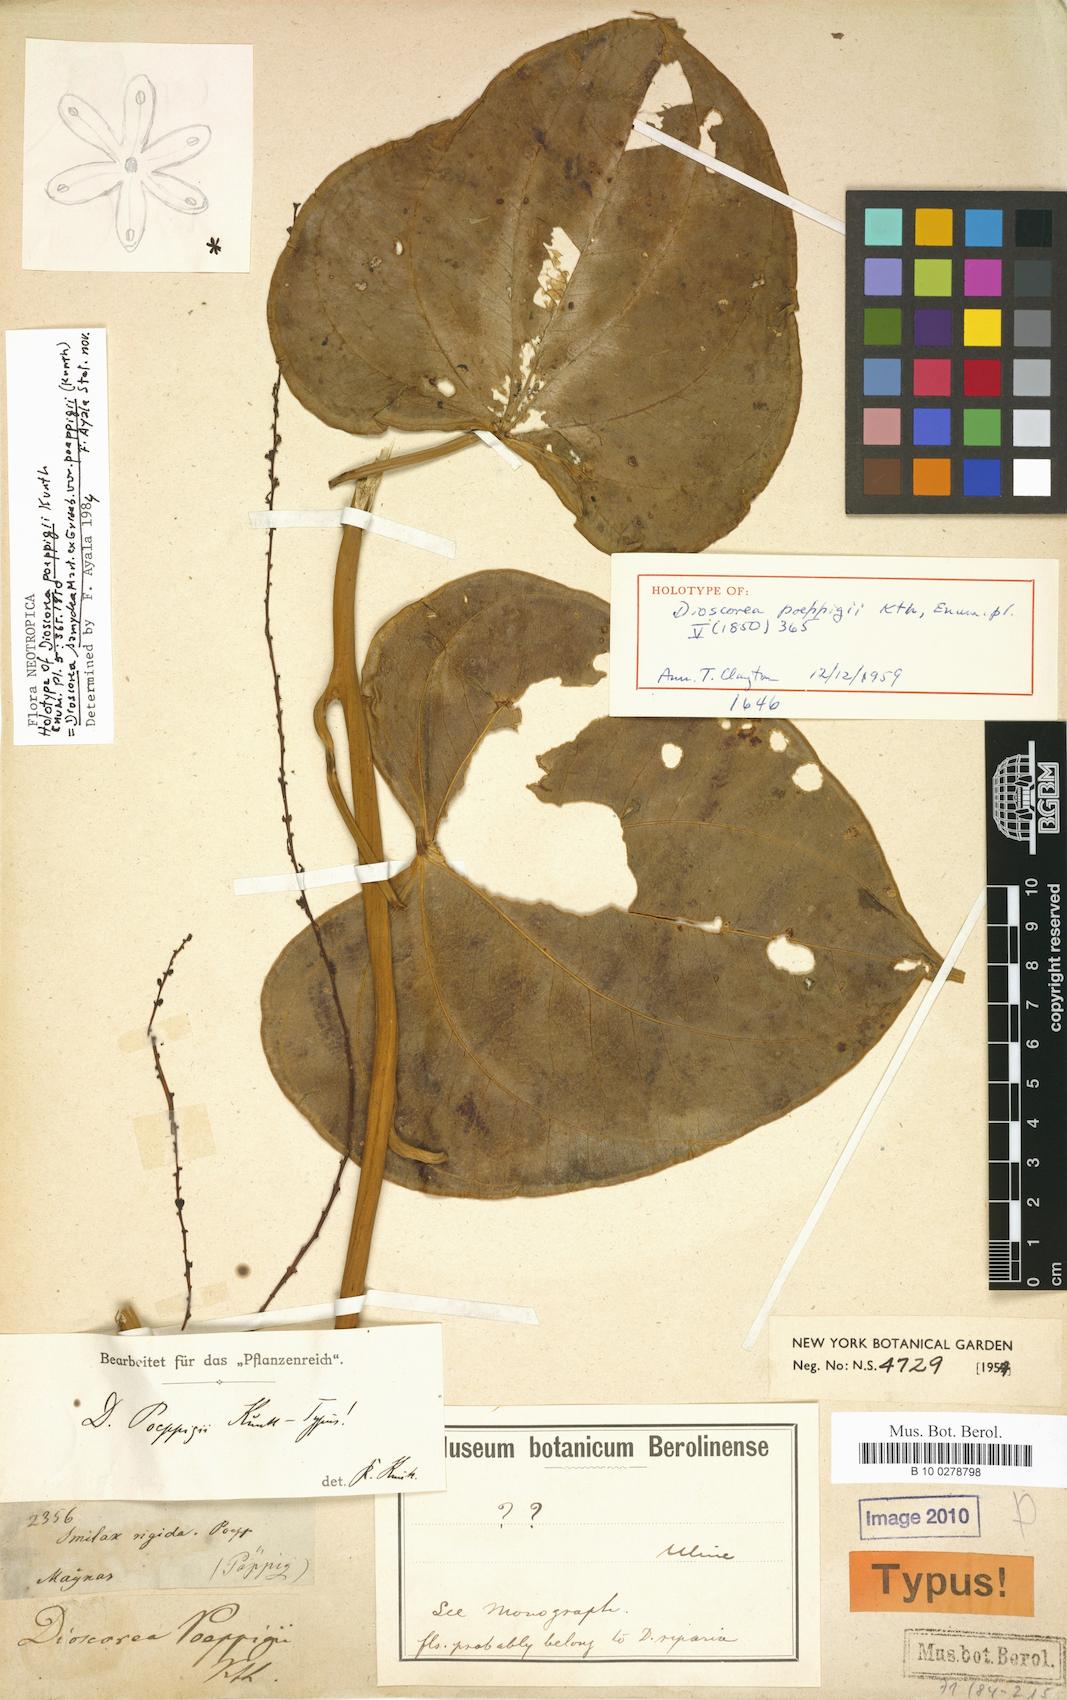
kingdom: Plantae
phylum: Tracheophyta
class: Liliopsida
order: Dioscoreales
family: Dioscoreaceae
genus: Dioscorea
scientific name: Dioscorea chondrocarpa
